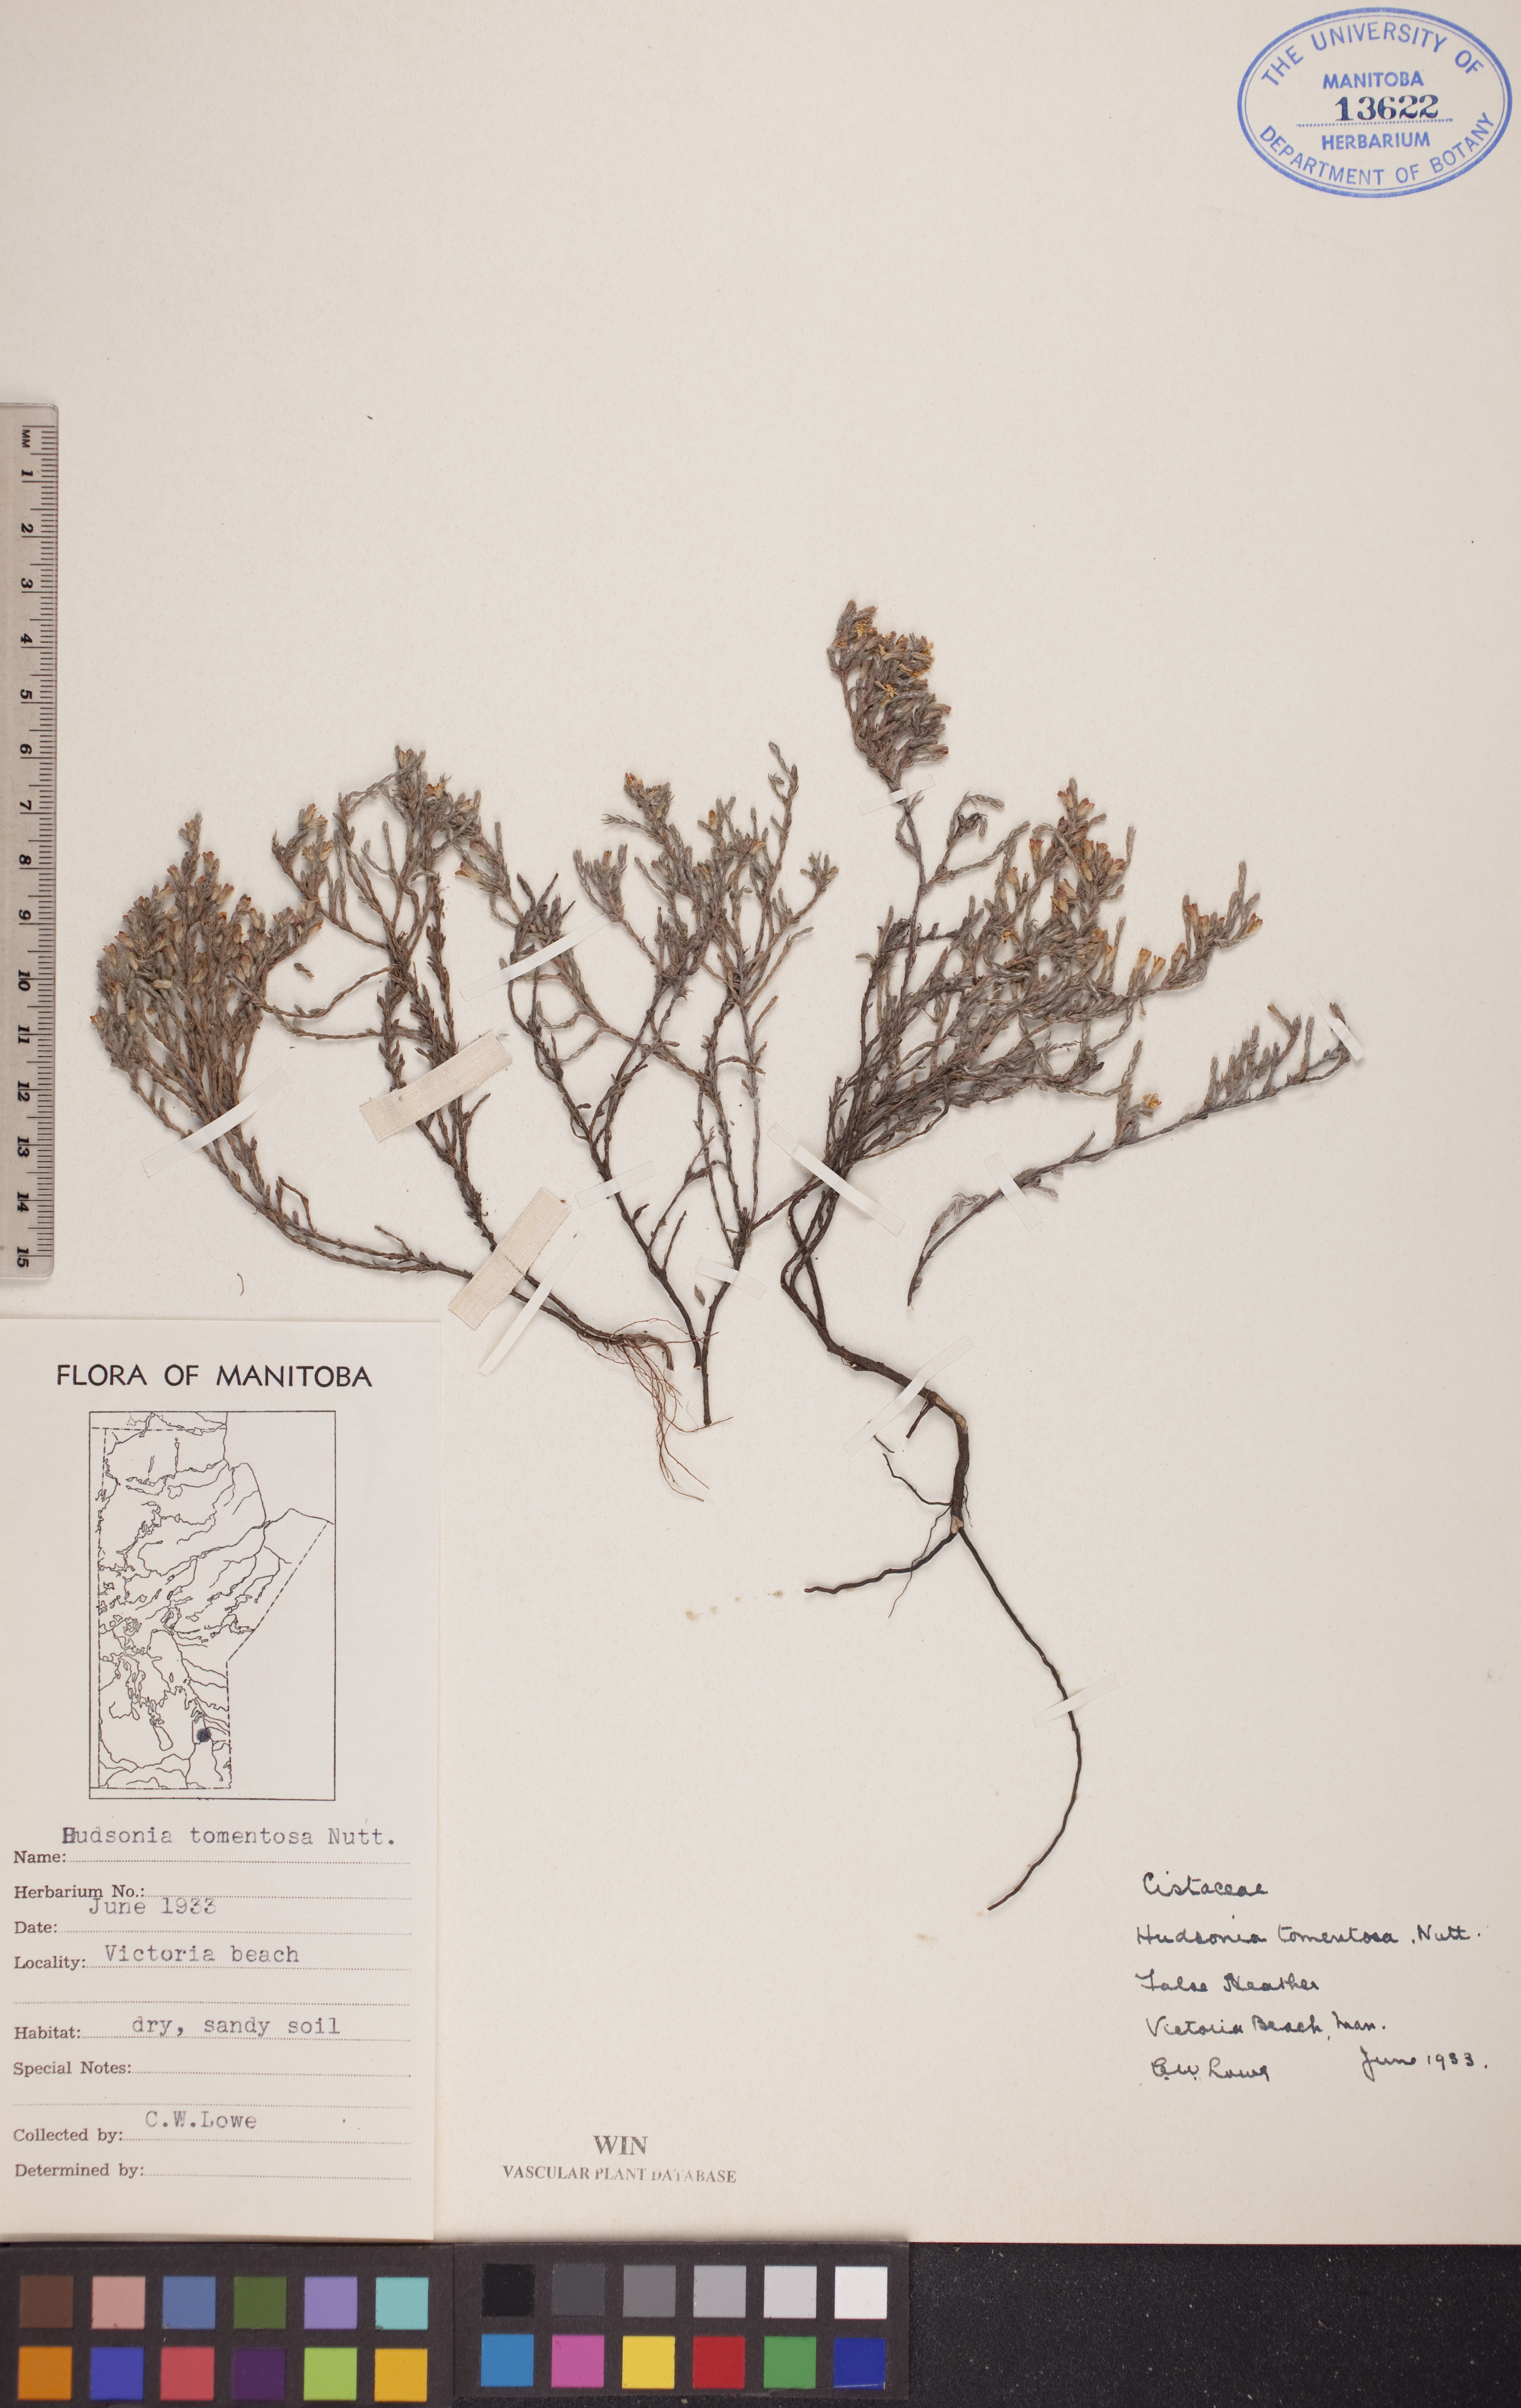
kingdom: Plantae
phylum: Tracheophyta
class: Magnoliopsida
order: Malvales
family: Cistaceae
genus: Hudsonia
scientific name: Hudsonia tomentosa
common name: Beach-heath
